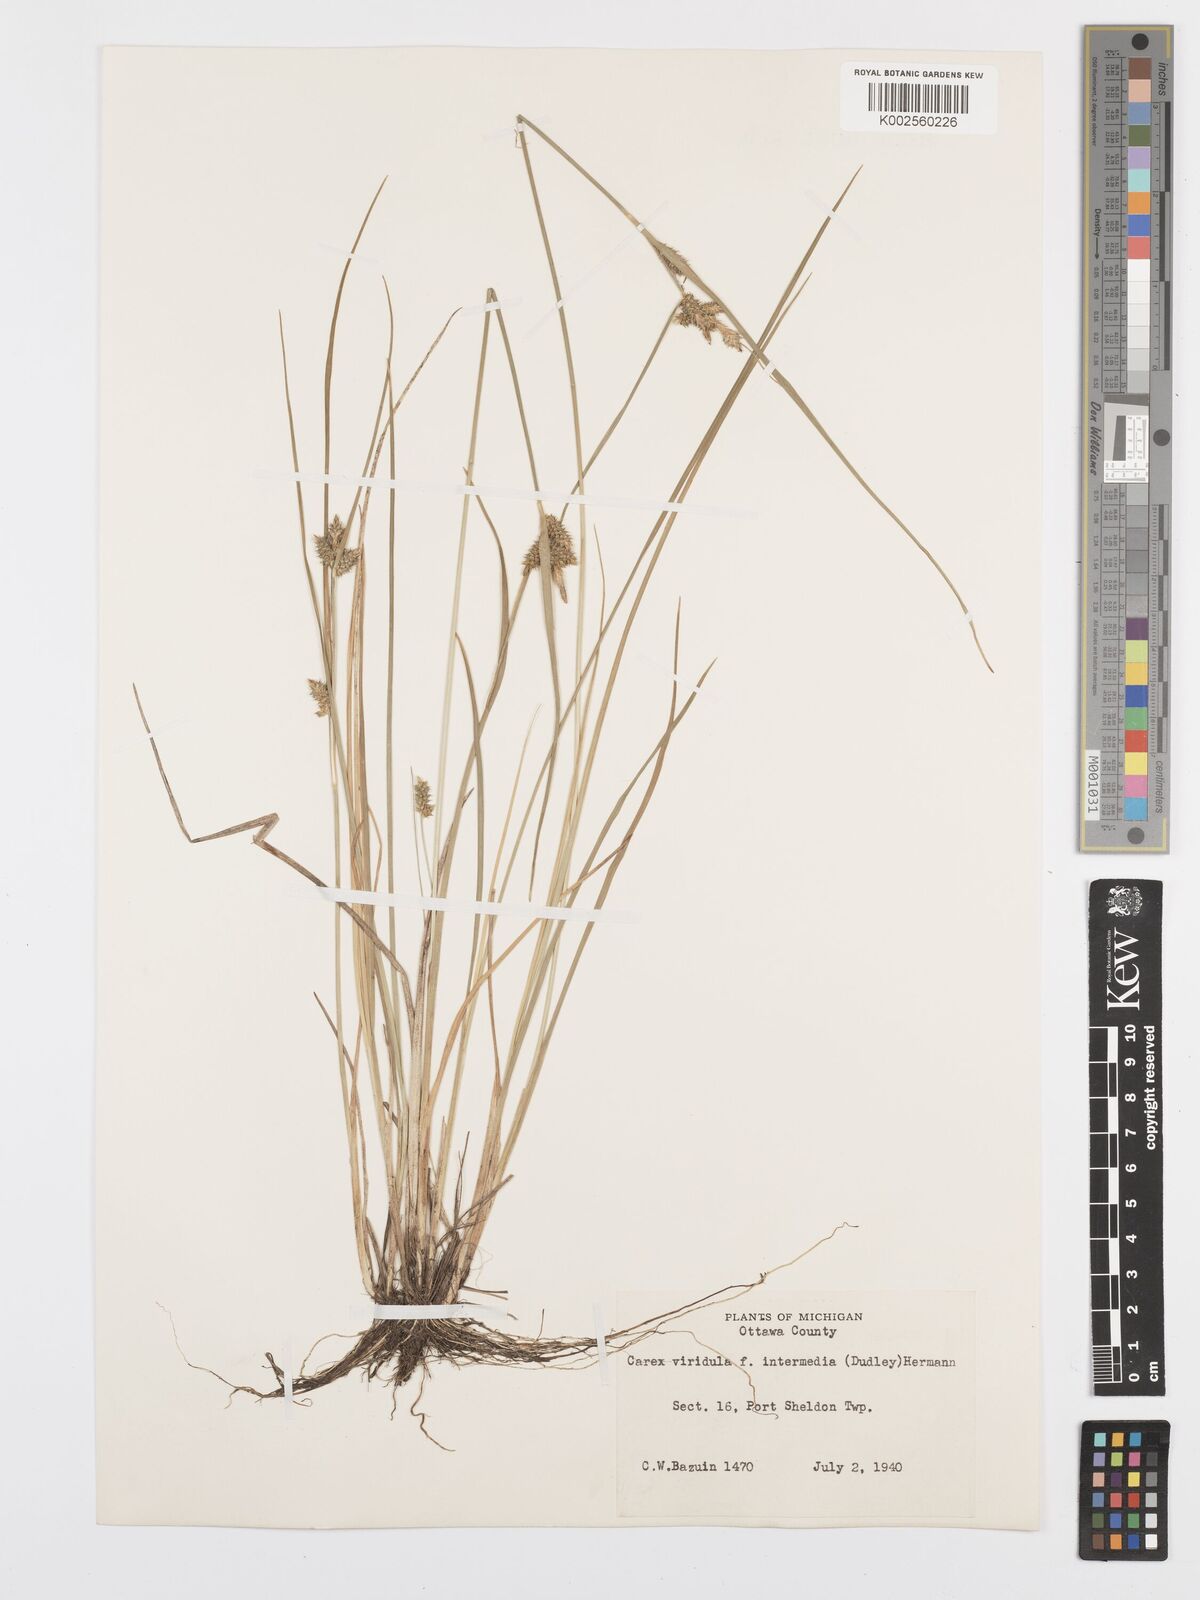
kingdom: Plantae
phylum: Tracheophyta
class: Liliopsida
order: Poales
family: Cyperaceae
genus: Carex
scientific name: Carex oederi
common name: Common & small-fruited yellow-sedge
